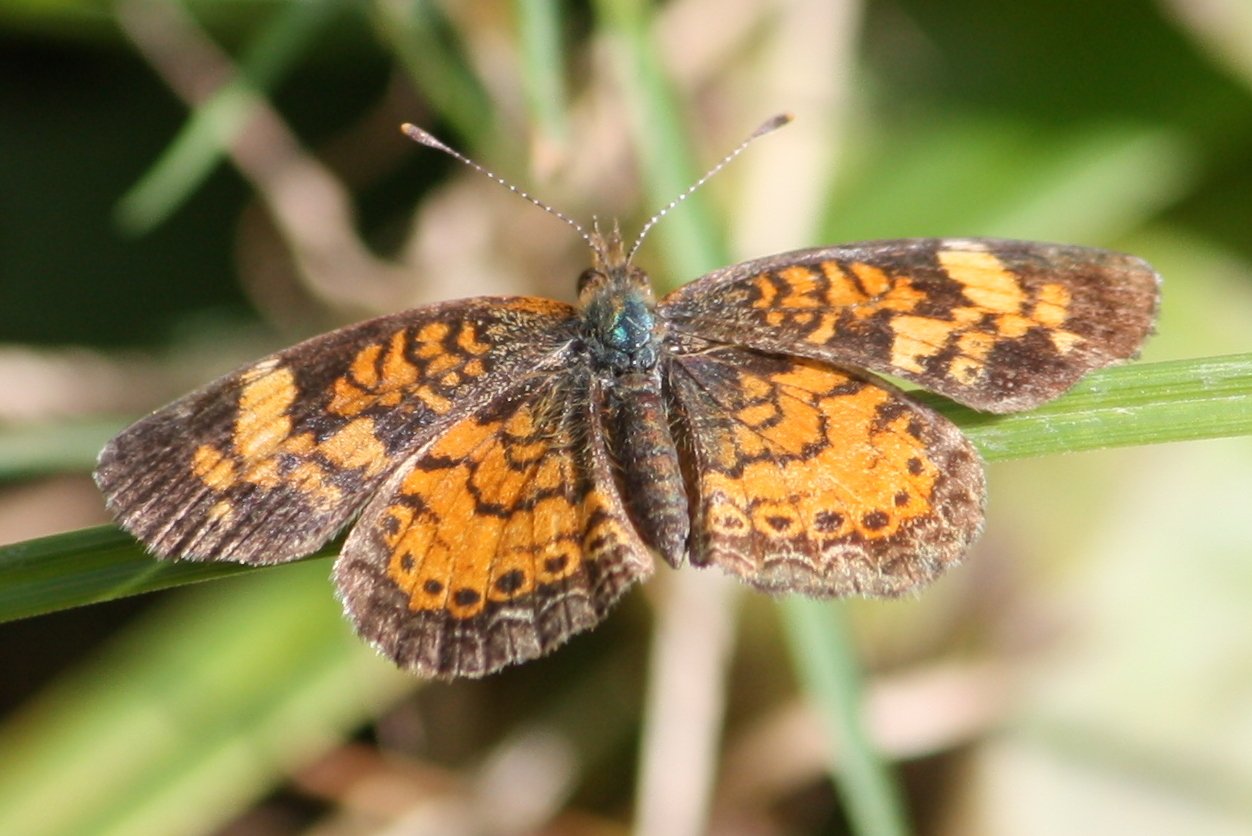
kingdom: Animalia
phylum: Arthropoda
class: Insecta
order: Lepidoptera
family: Nymphalidae
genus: Phyciodes
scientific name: Phyciodes tharos
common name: Pearl Crescent
